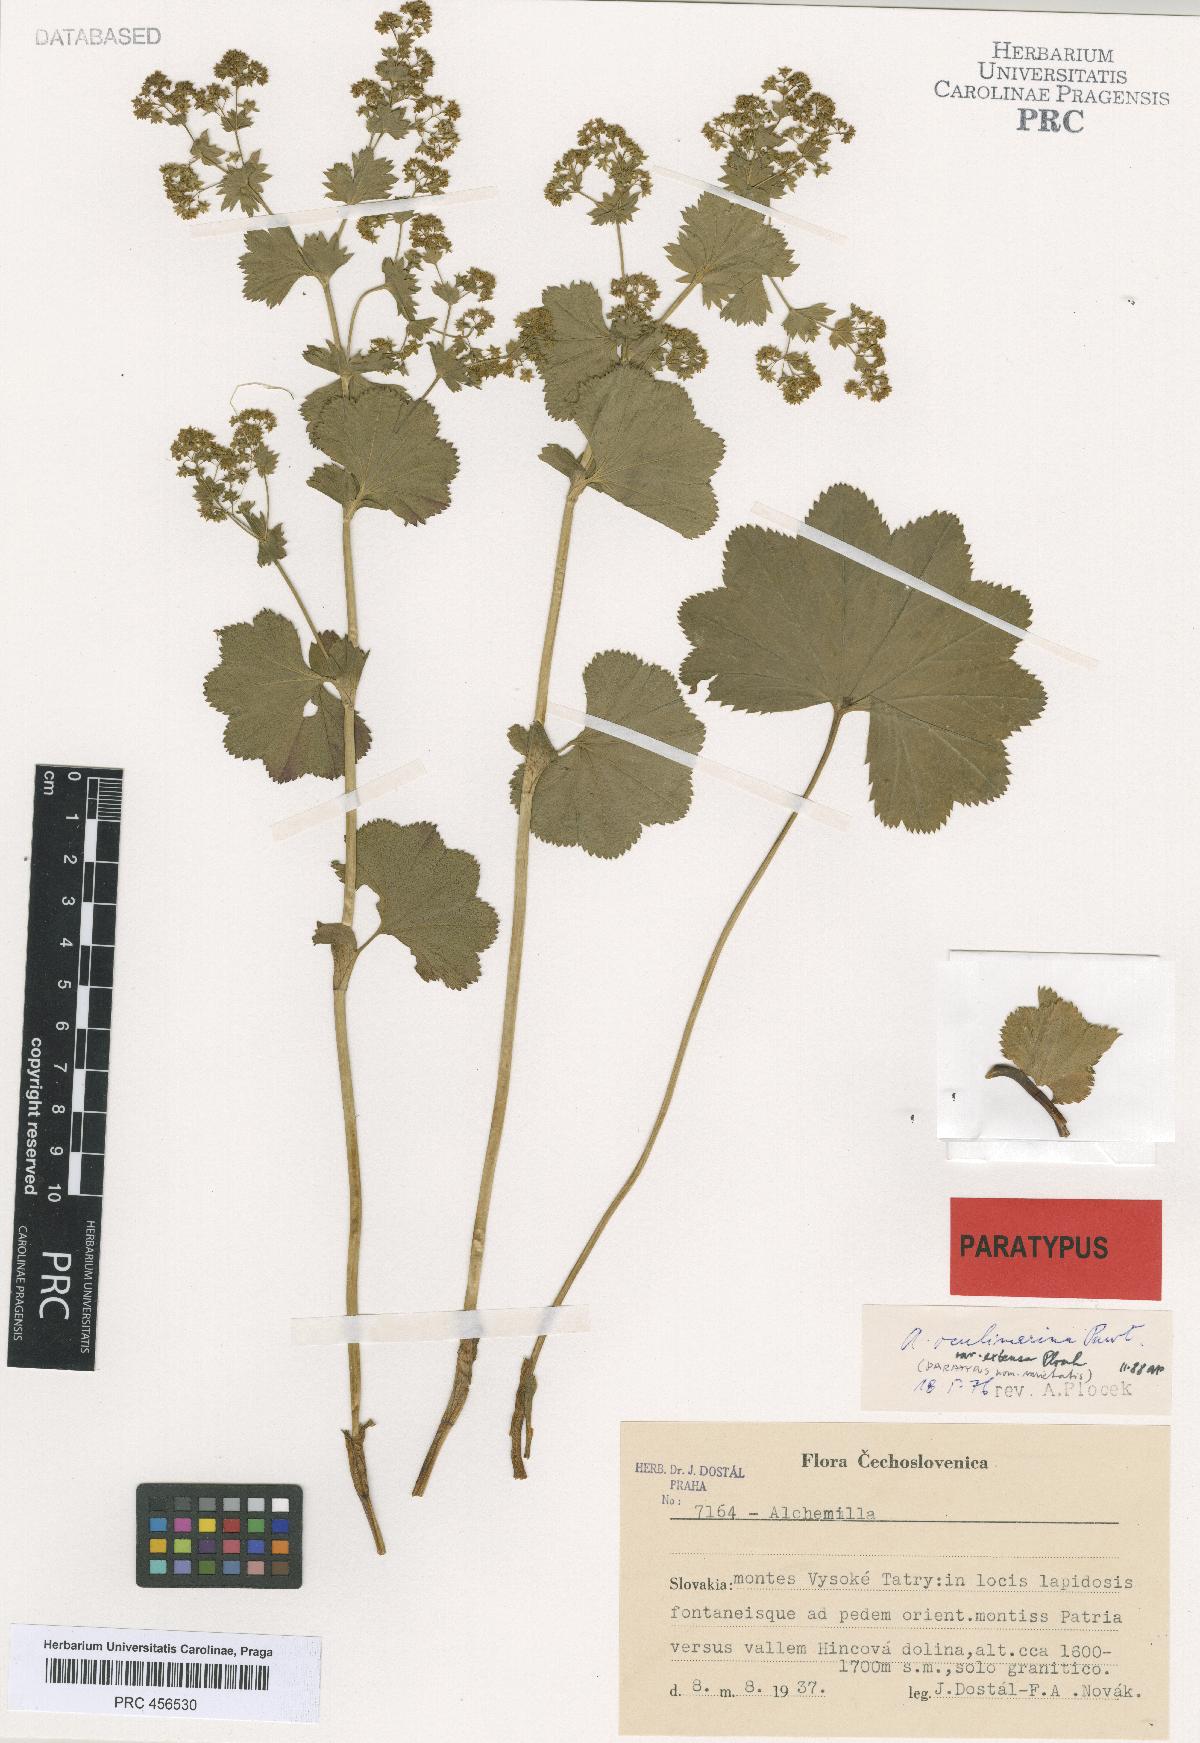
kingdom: Plantae
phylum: Tracheophyta
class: Magnoliopsida
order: Rosales
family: Rosaceae
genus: Alchemilla
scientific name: Alchemilla oculimarina
